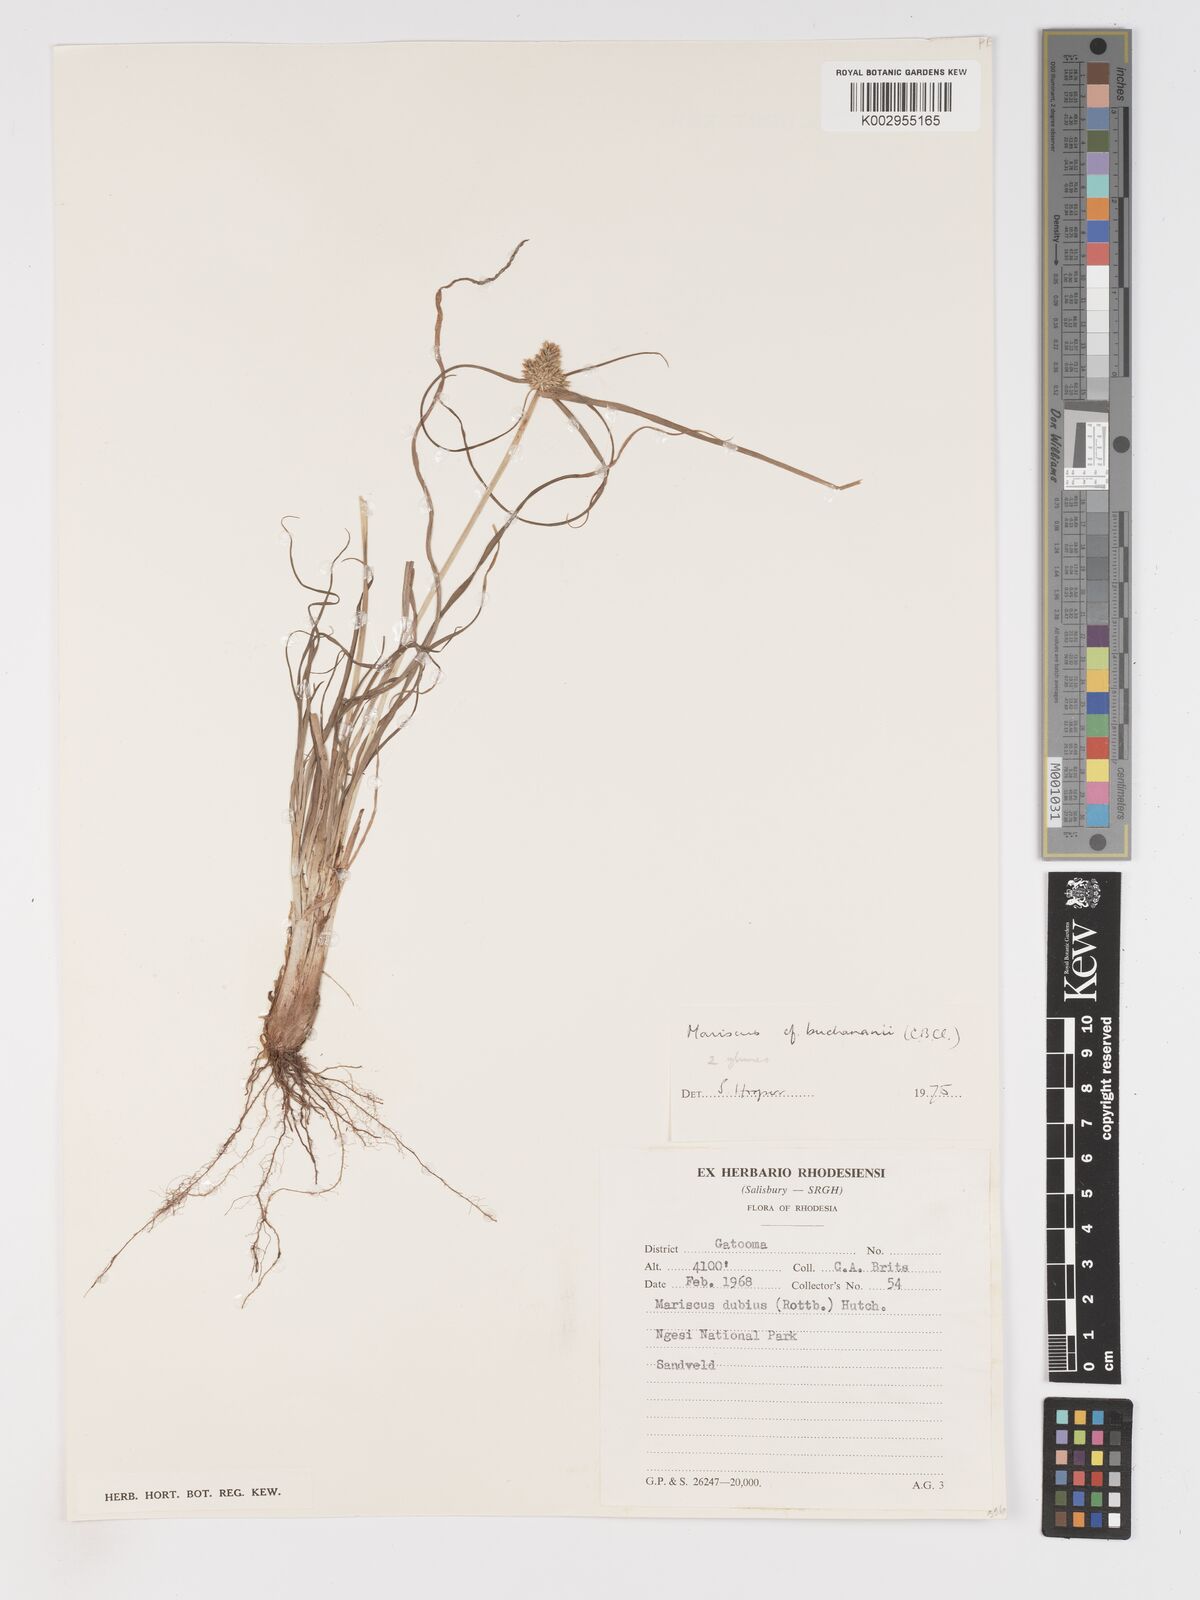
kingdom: Plantae
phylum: Tracheophyta
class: Liliopsida
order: Poales
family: Cyperaceae
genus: Cyperus
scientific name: Cyperus dubius
